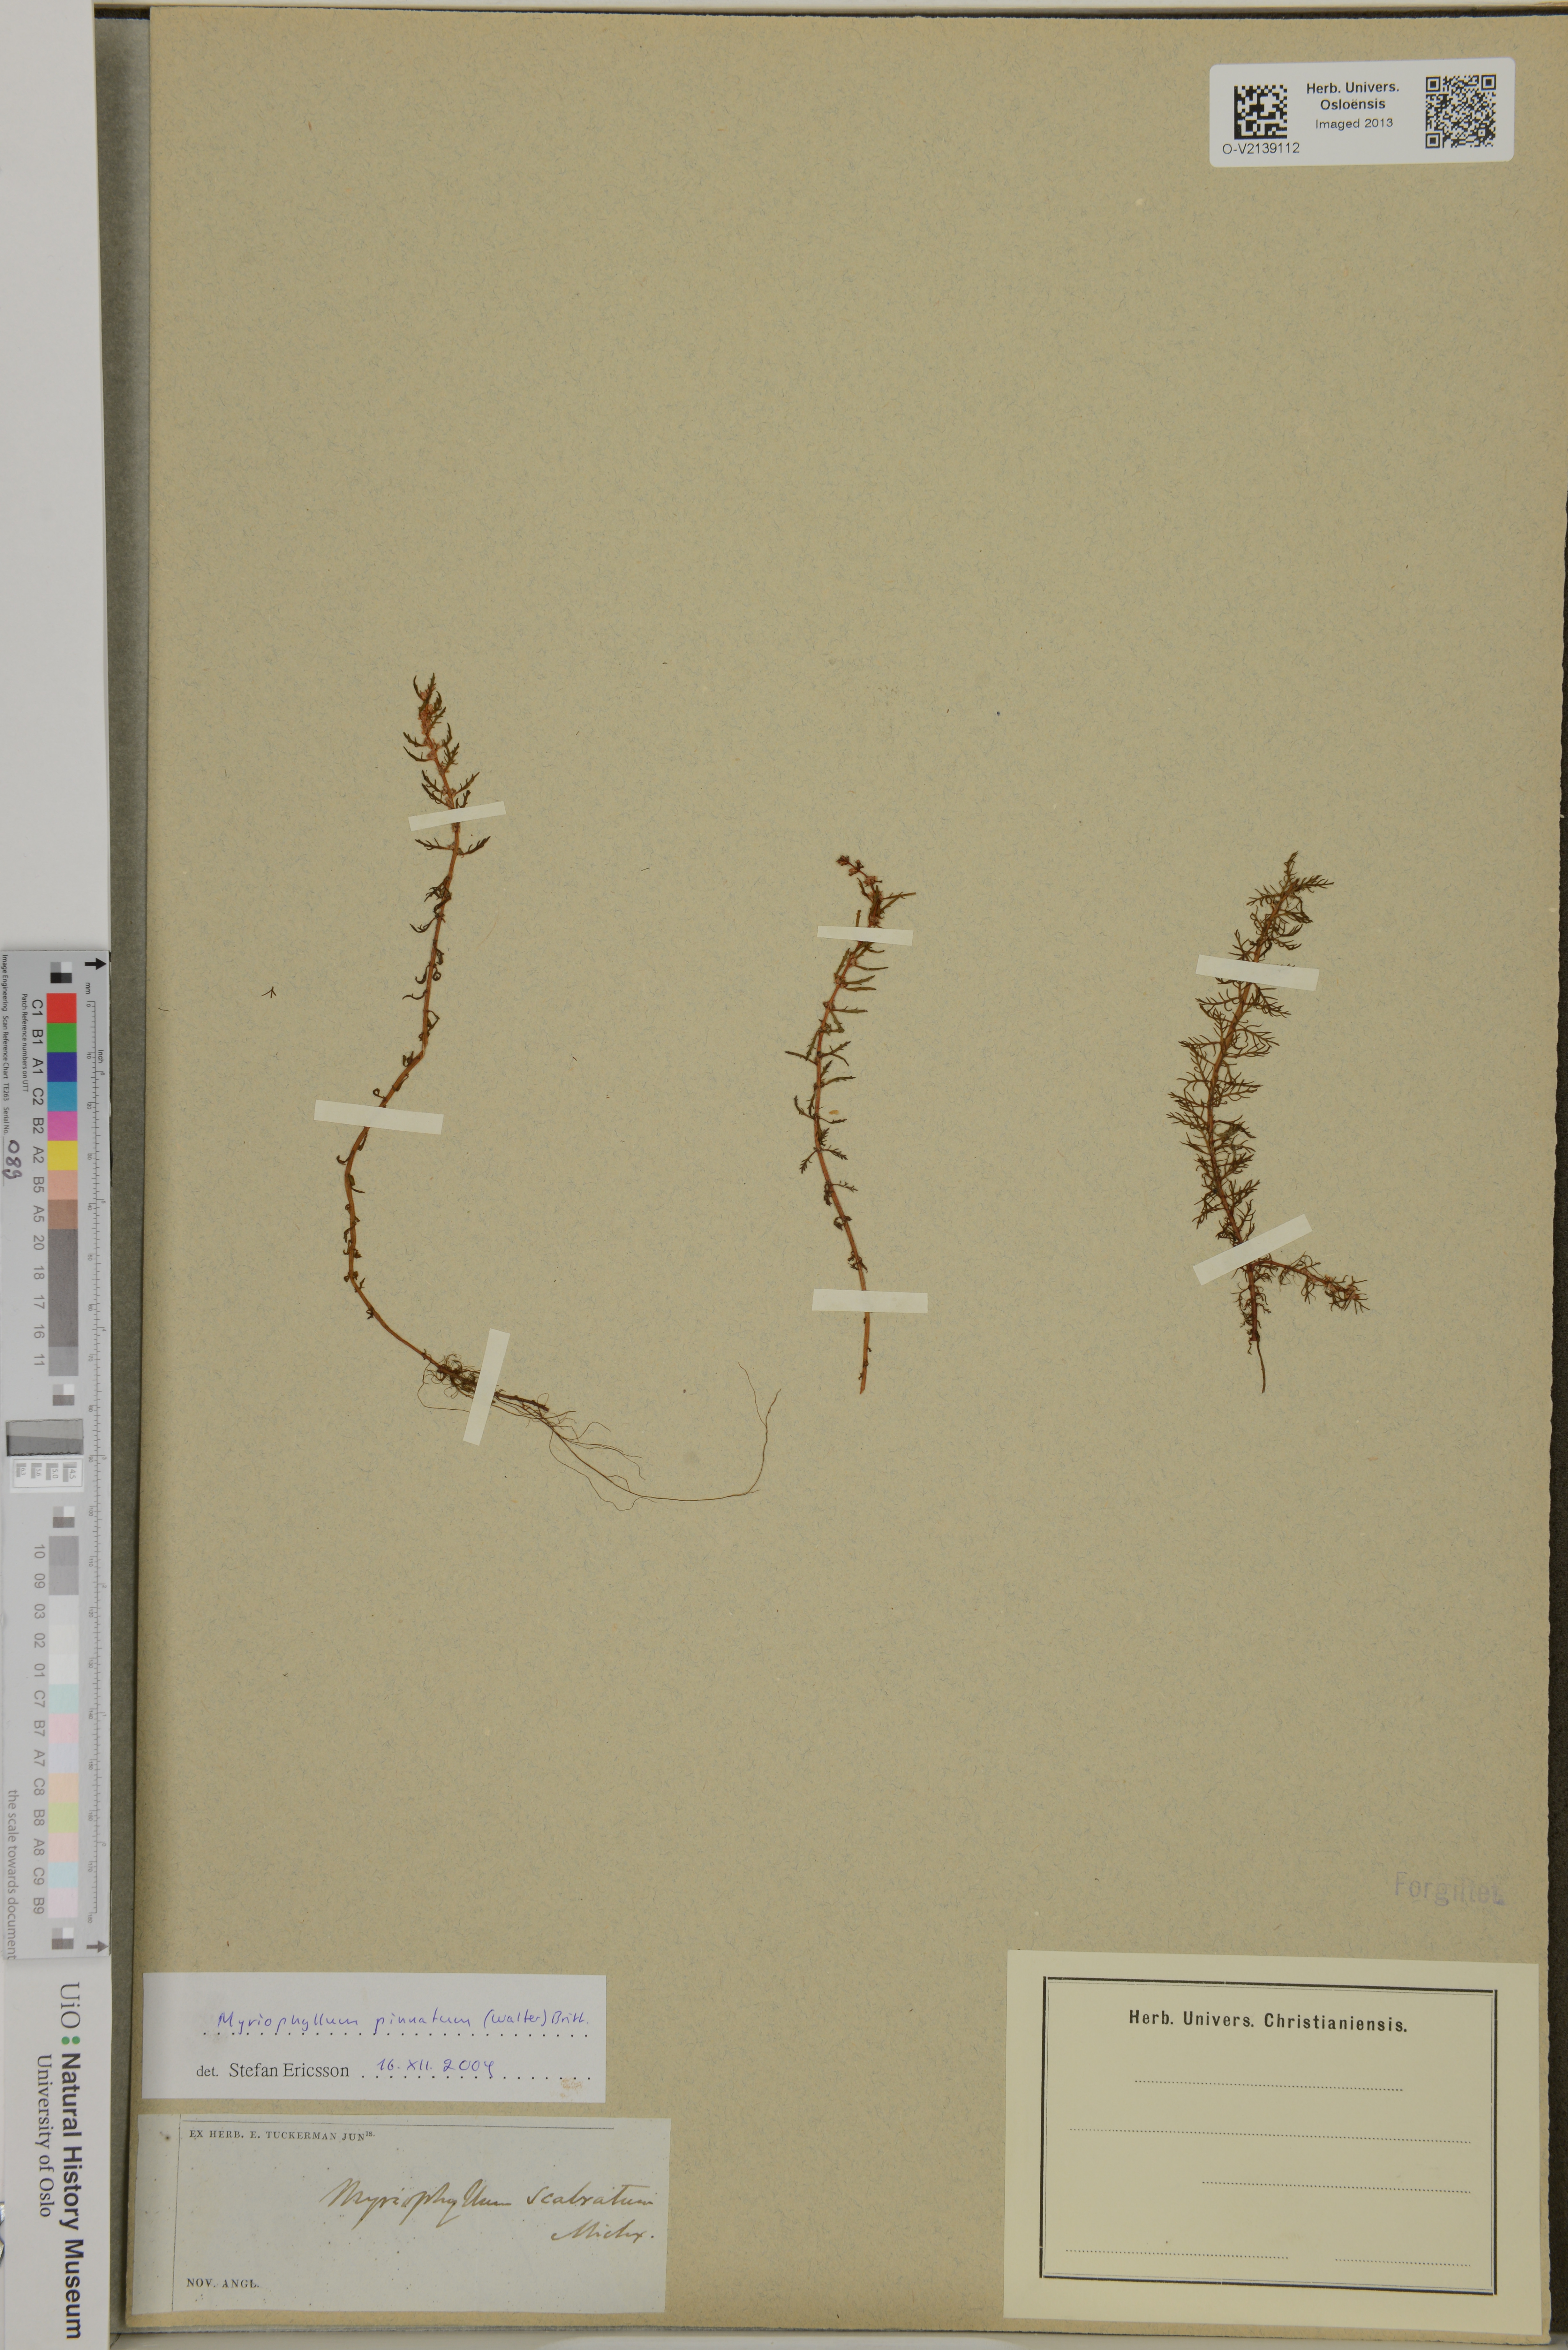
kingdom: Plantae
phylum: Tracheophyta
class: Magnoliopsida
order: Saxifragales
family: Haloragaceae
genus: Myriophyllum
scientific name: Myriophyllum pinnatum
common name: Cut-leaved water-milfoil
